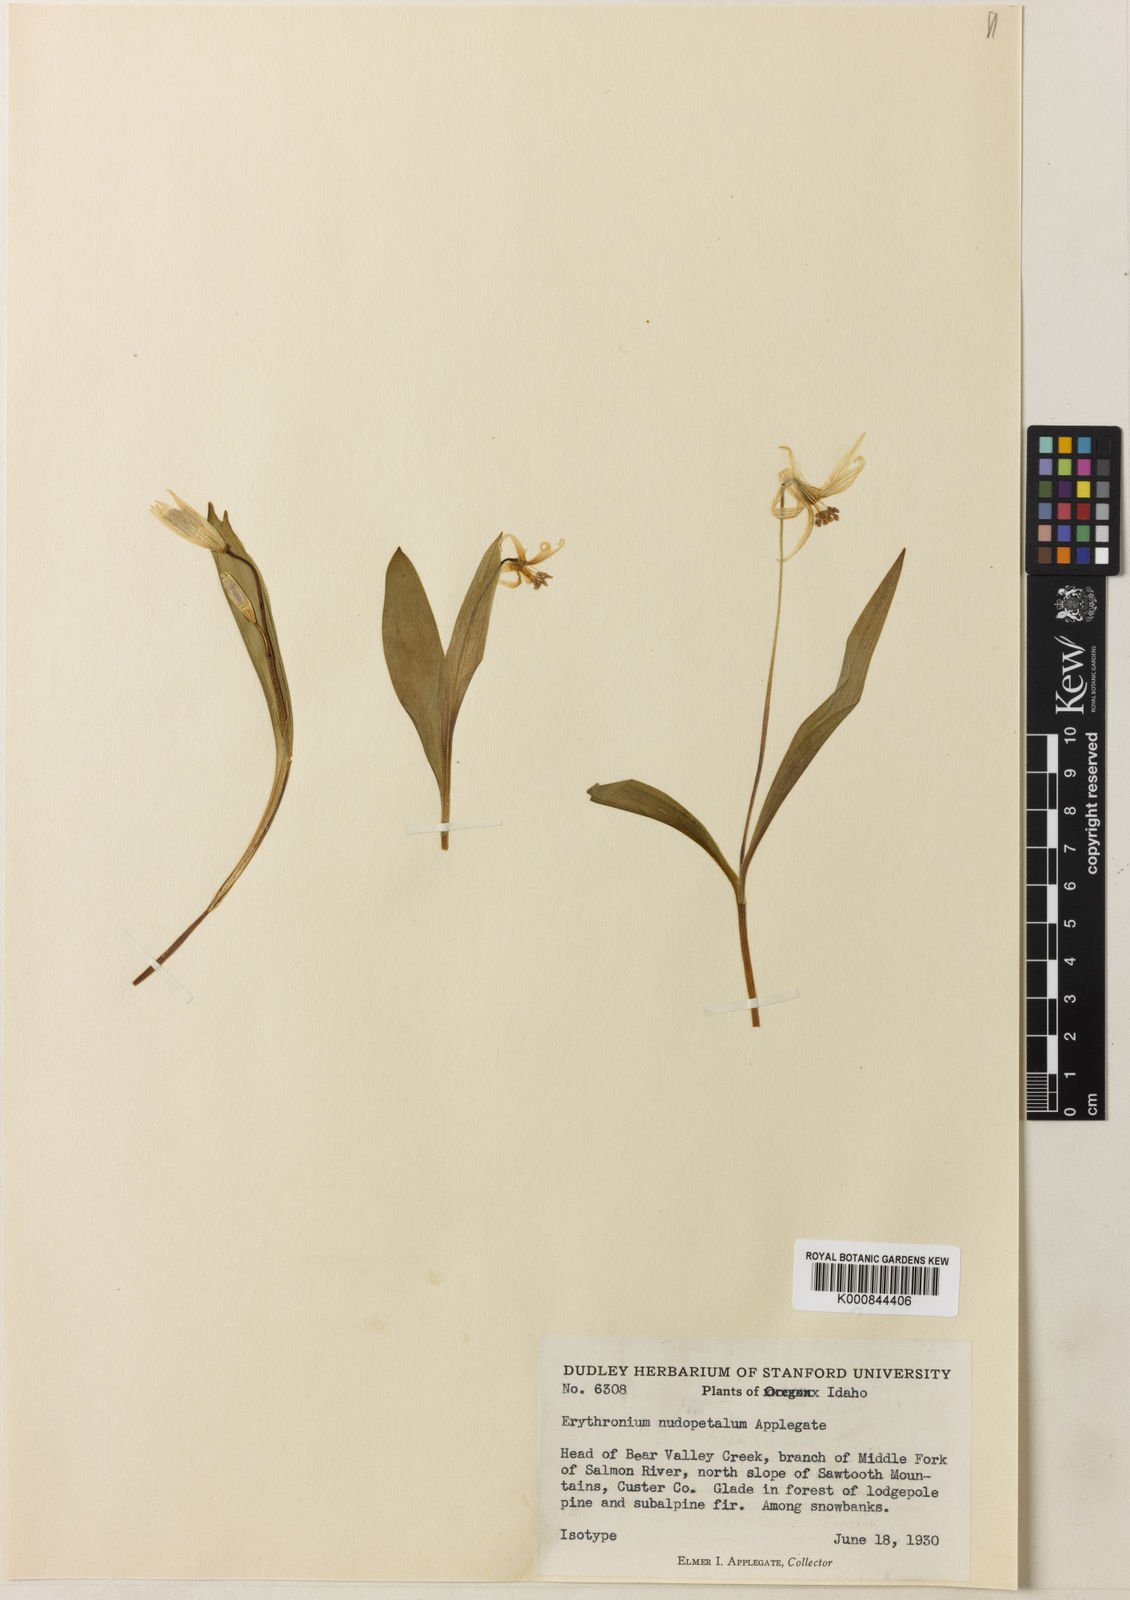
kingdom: Plantae
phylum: Tracheophyta
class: Liliopsida
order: Liliales
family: Liliaceae
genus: Erythronium
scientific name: Erythronium
